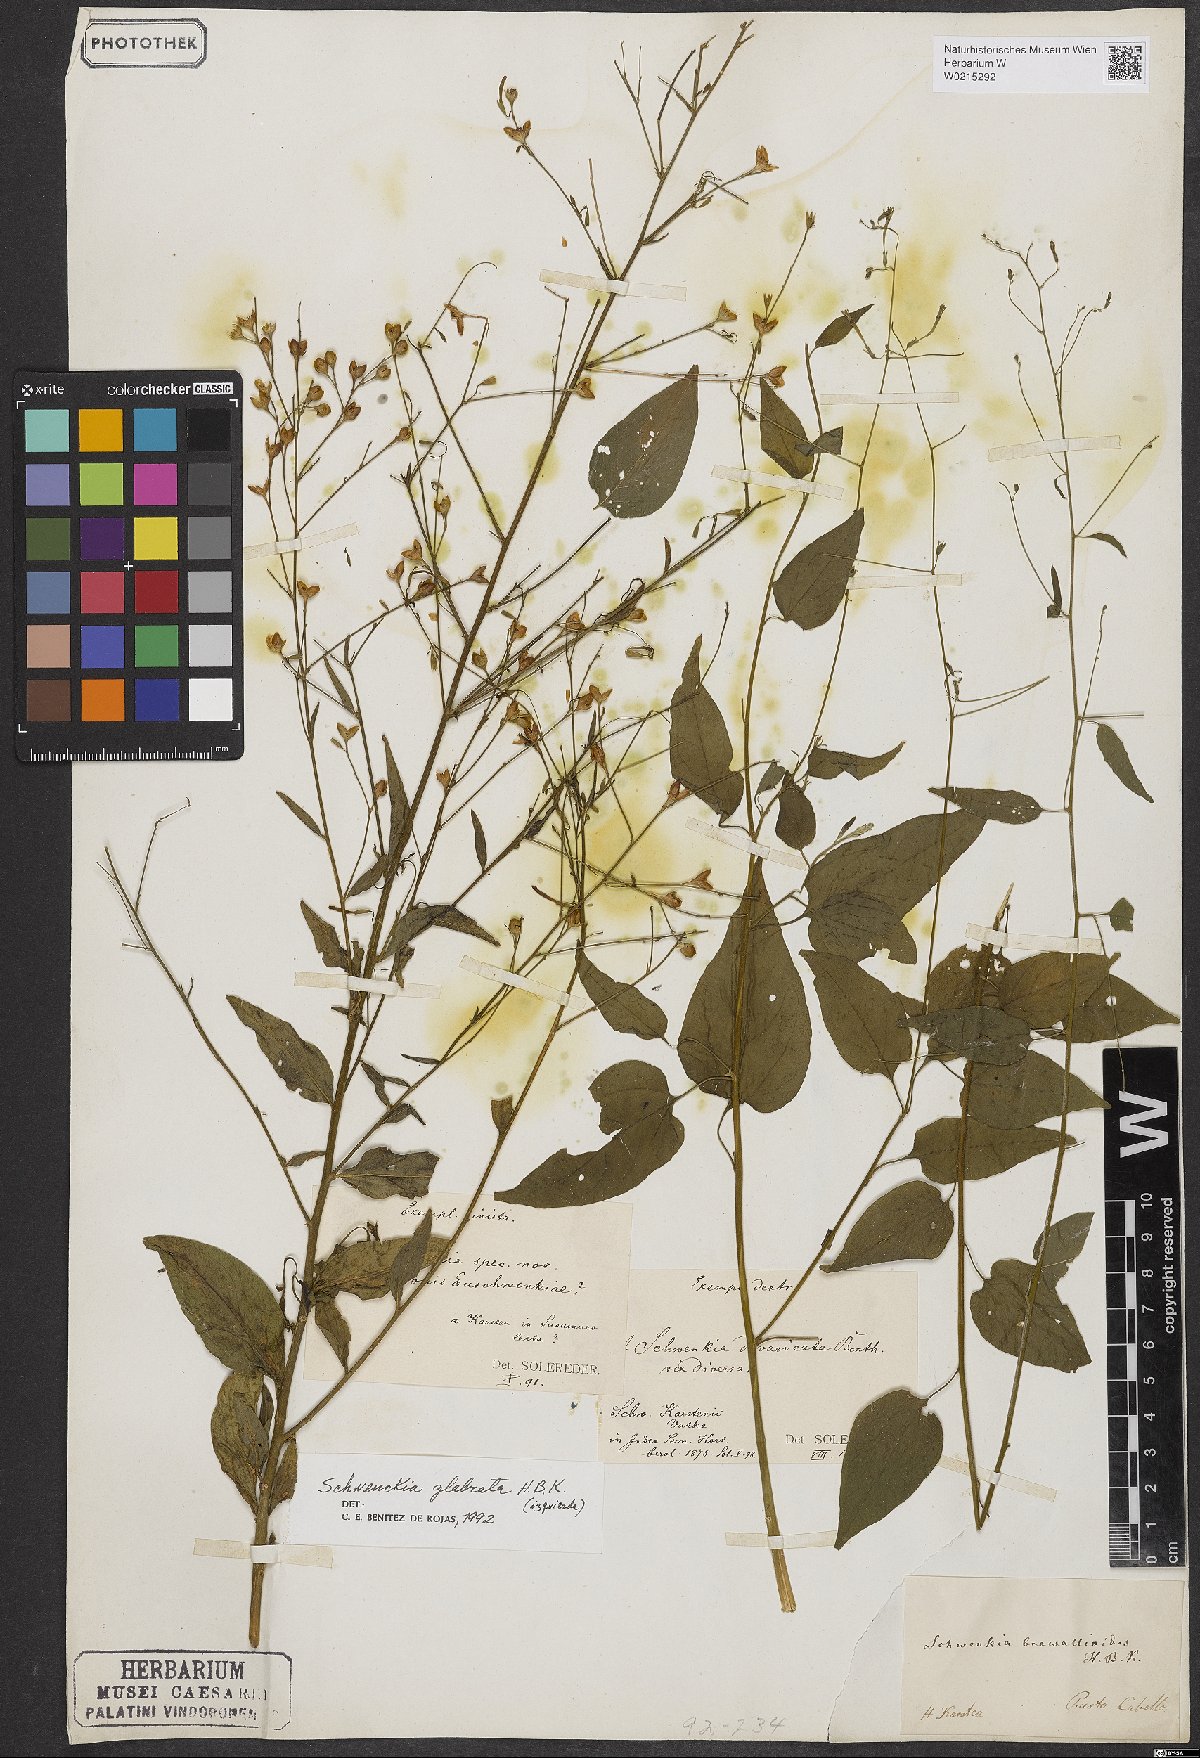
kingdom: Plantae
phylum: Tracheophyta
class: Magnoliopsida
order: Solanales
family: Solanaceae
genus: Schwenckia
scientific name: Schwenckia glabrata
